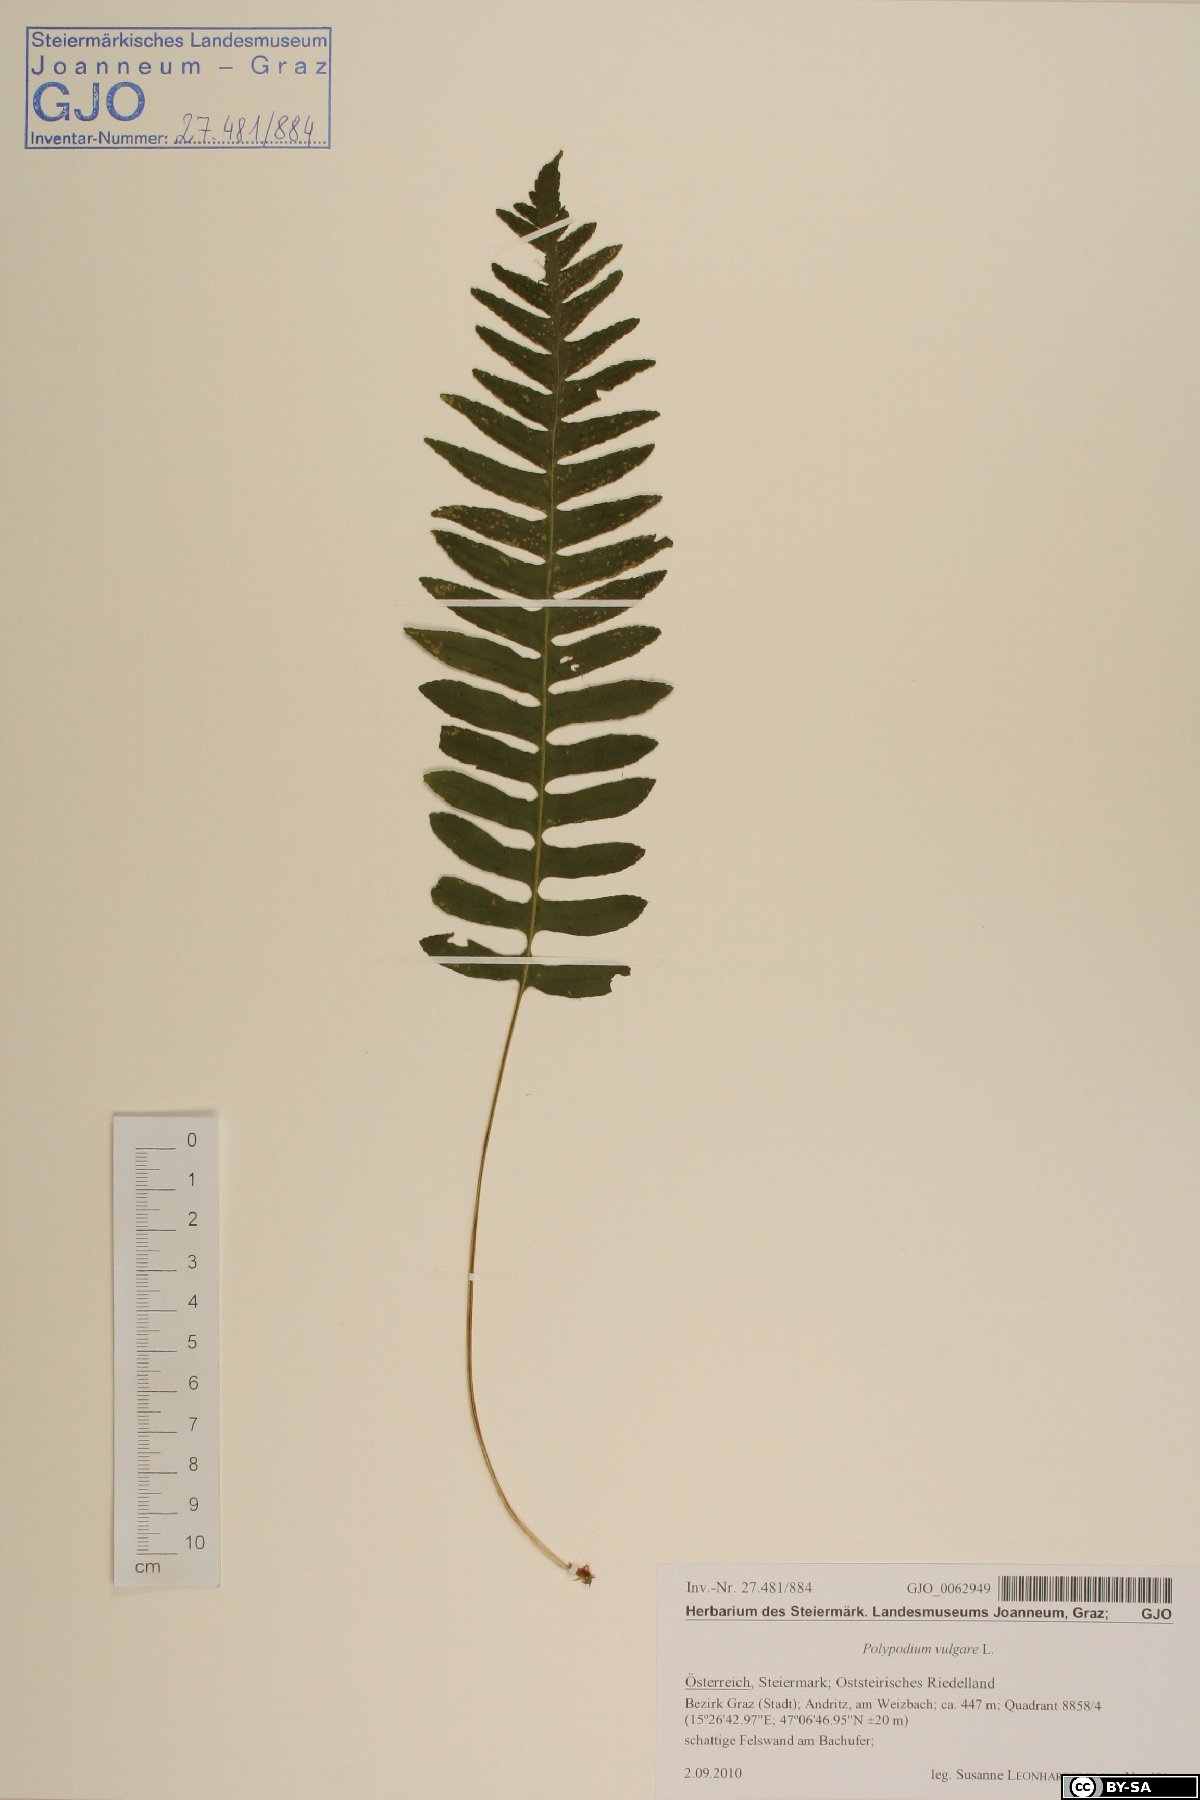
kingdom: Plantae
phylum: Tracheophyta
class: Polypodiopsida
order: Polypodiales
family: Polypodiaceae
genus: Polypodium
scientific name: Polypodium vulgare
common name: Common polypody
